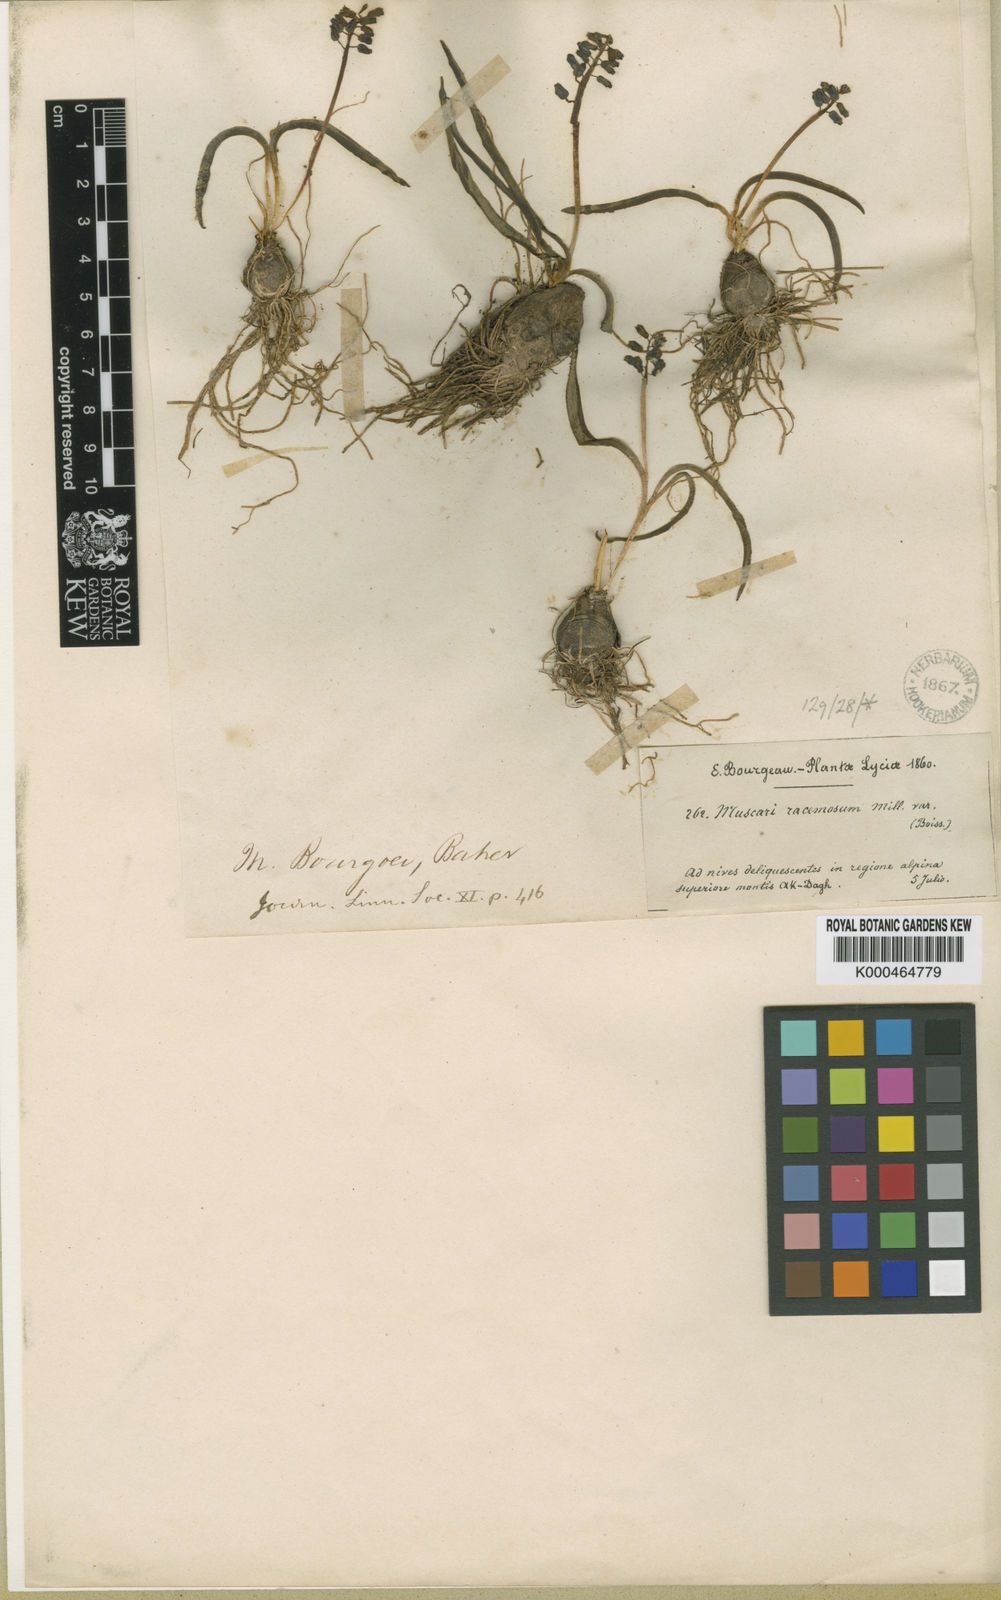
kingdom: Plantae
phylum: Tracheophyta
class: Liliopsida
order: Asparagales
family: Asparagaceae
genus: Muscari
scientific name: Muscari bourgaei
